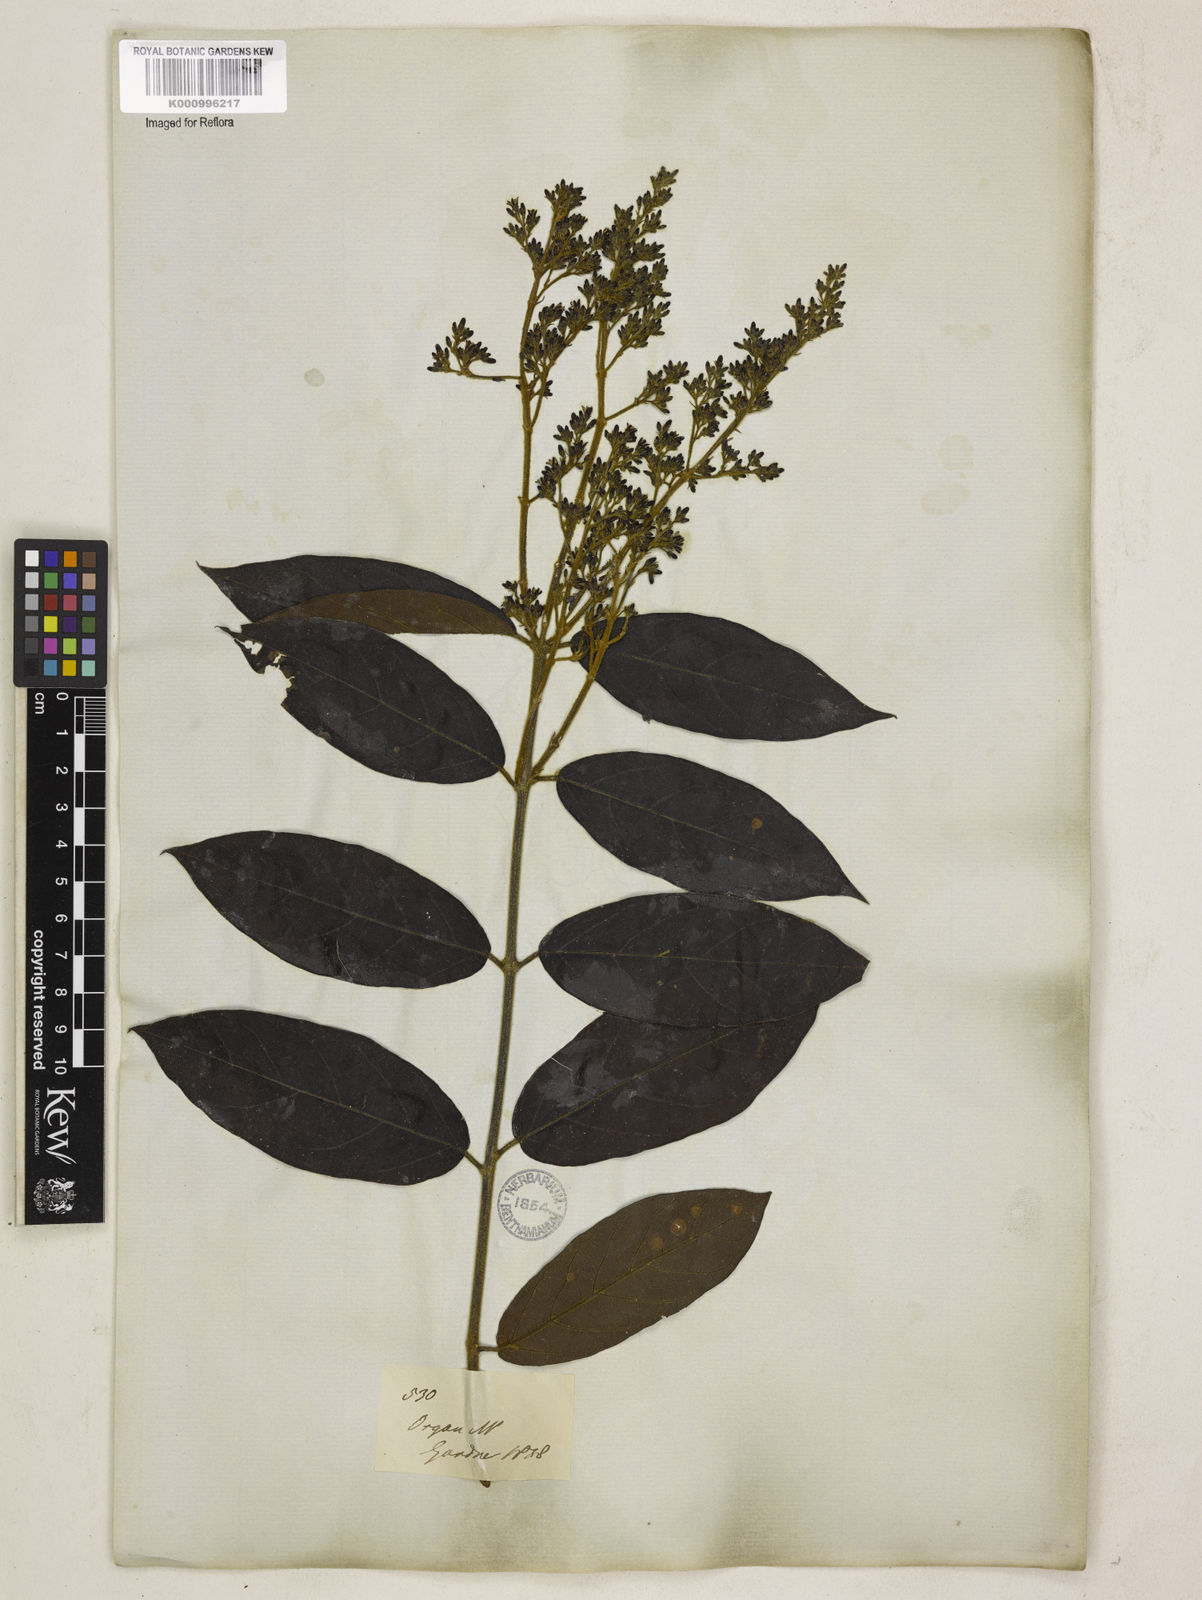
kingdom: Plantae
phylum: Tracheophyta
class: Magnoliopsida
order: Gentianales
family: Apocynaceae
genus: Forsteronia
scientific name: Forsteronia
